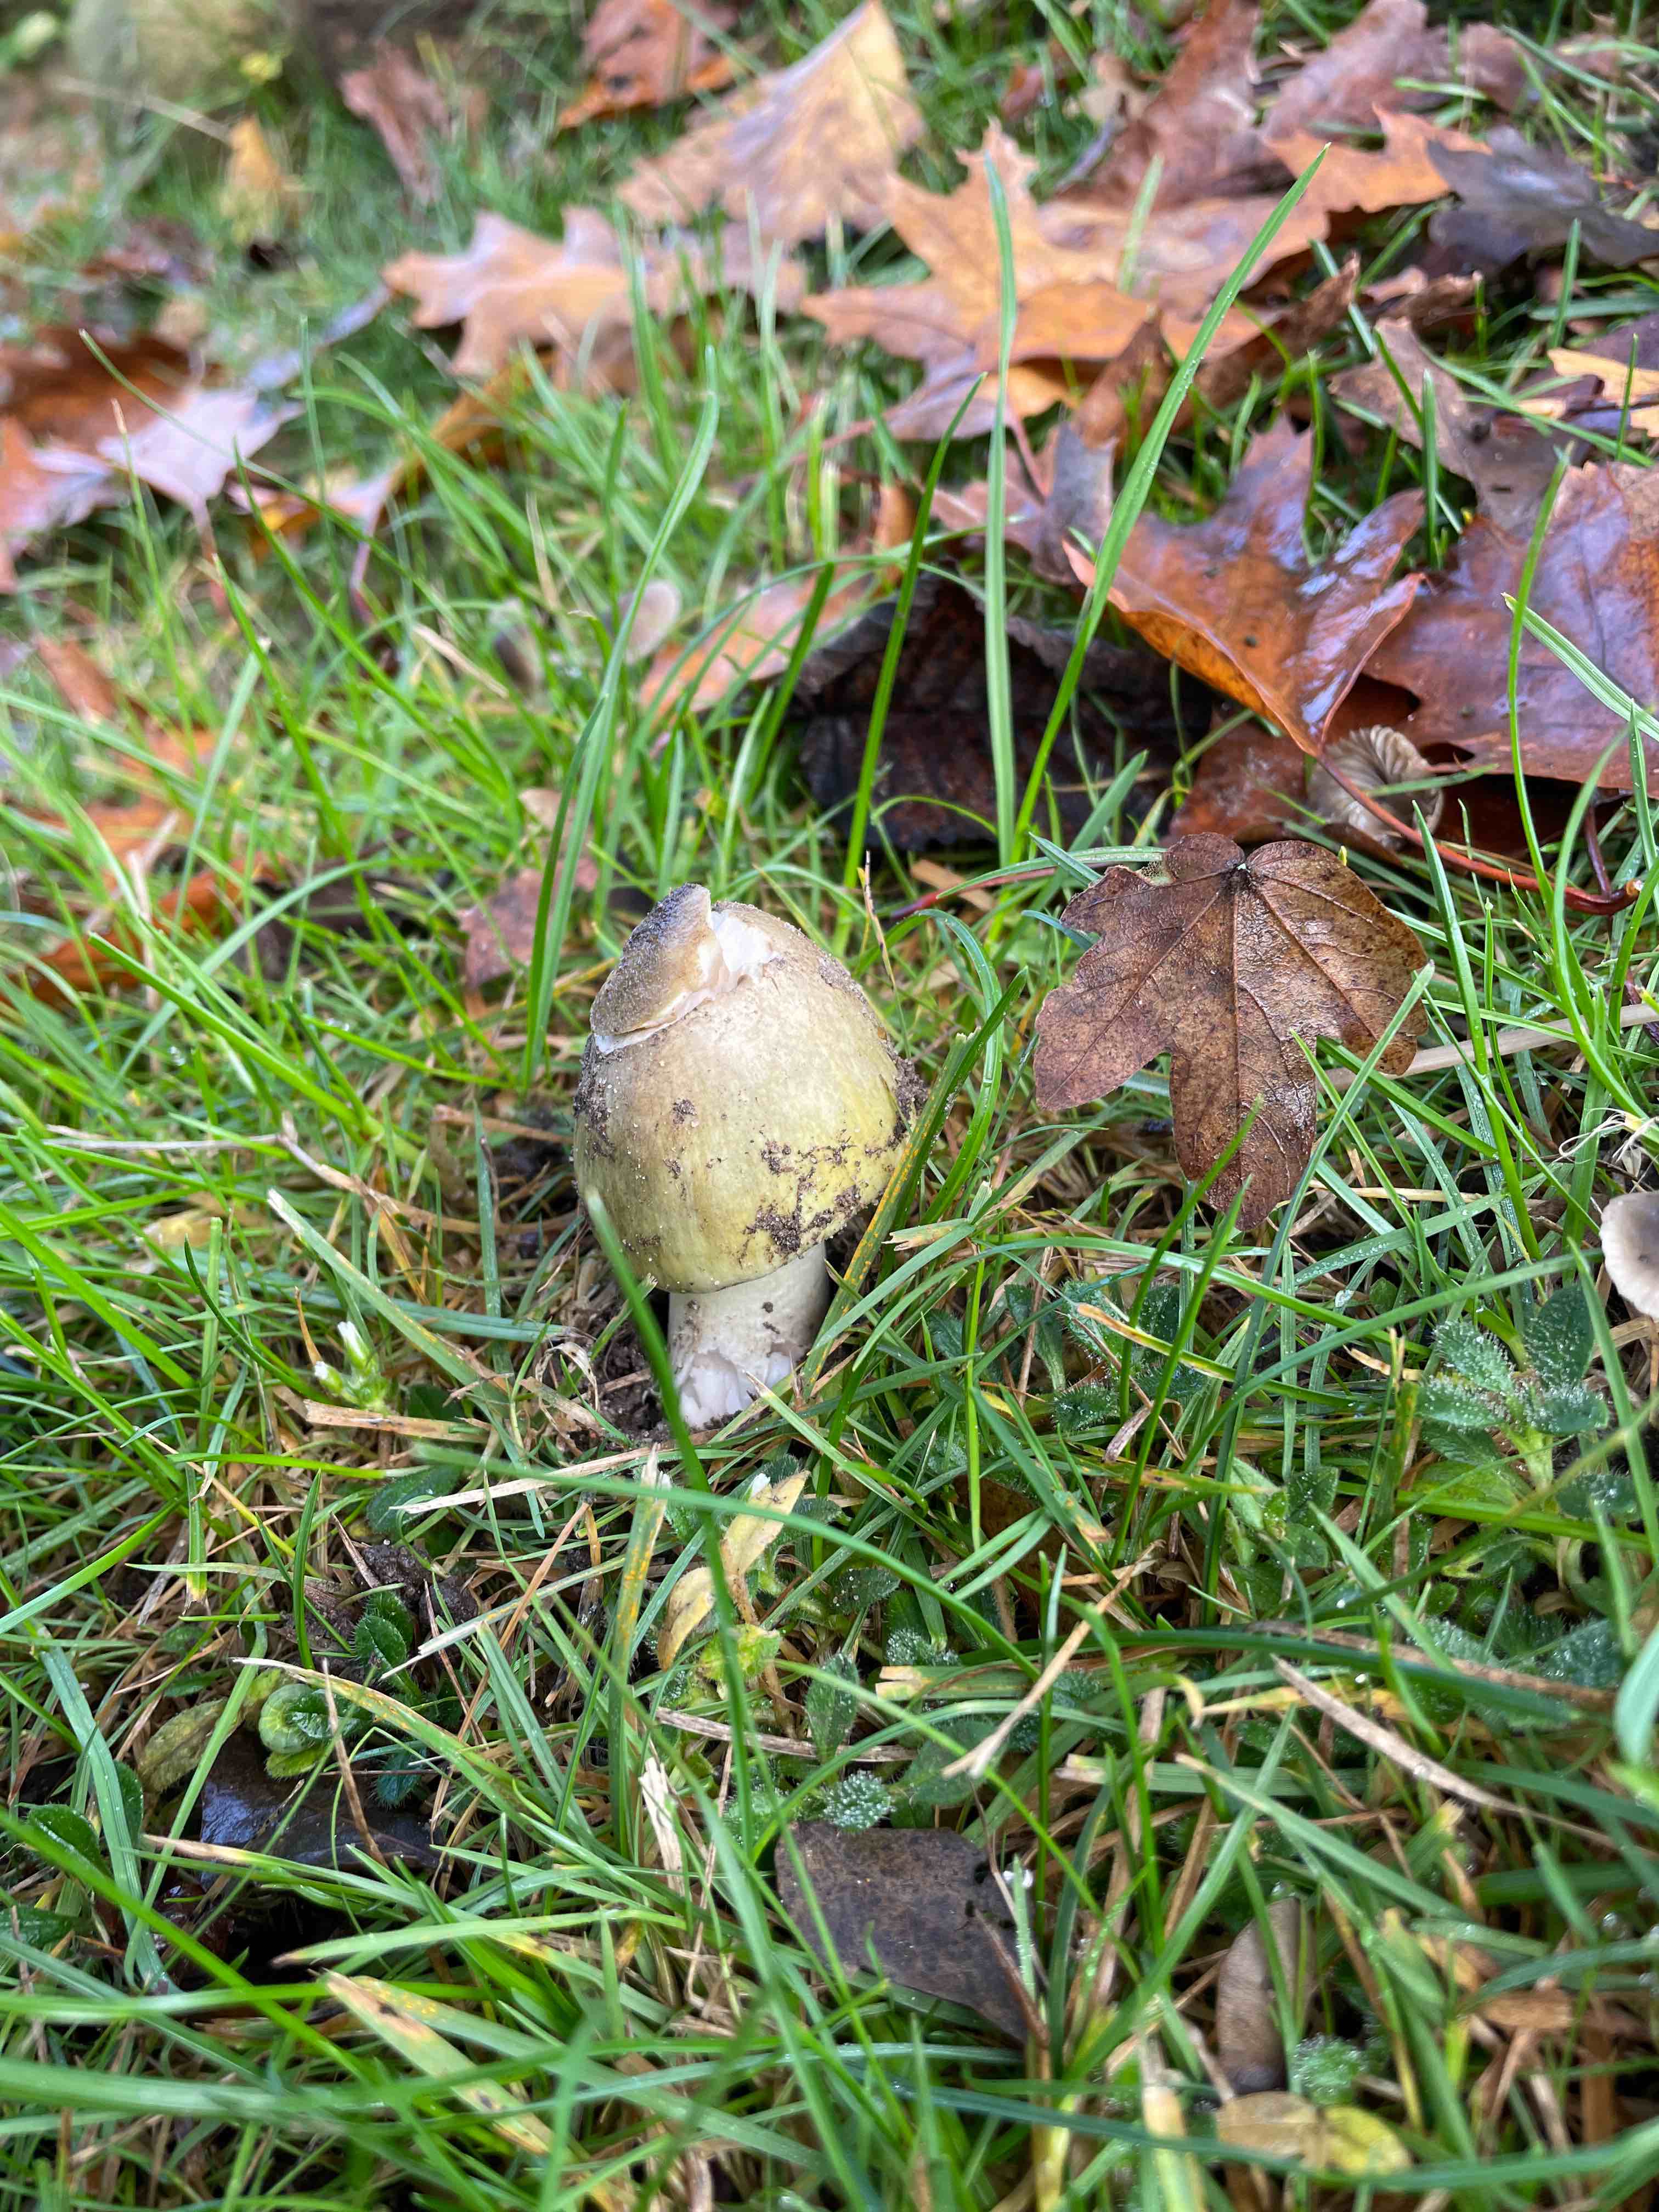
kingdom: Fungi
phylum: Basidiomycota
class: Agaricomycetes
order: Agaricales
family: Amanitaceae
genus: Amanita
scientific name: Amanita phalloides
